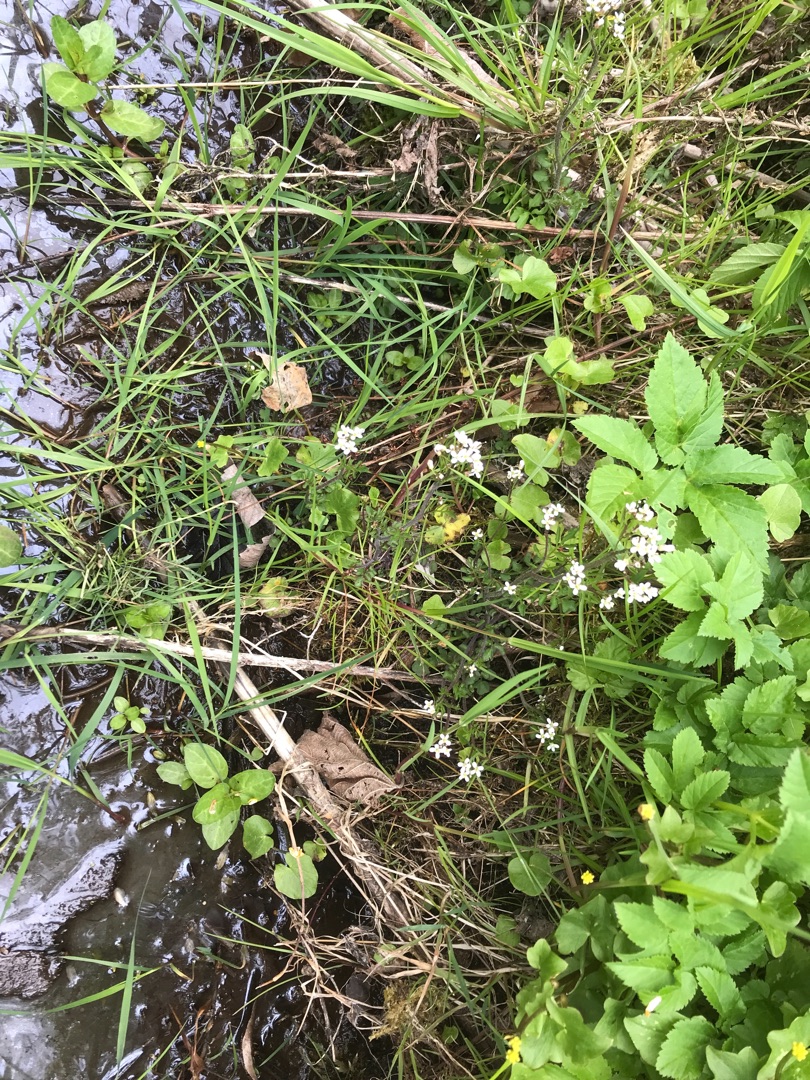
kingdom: Plantae
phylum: Tracheophyta
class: Magnoliopsida
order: Brassicales
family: Brassicaceae
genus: Cardamine
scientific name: Cardamine flexuosa
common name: Skov-springklap
